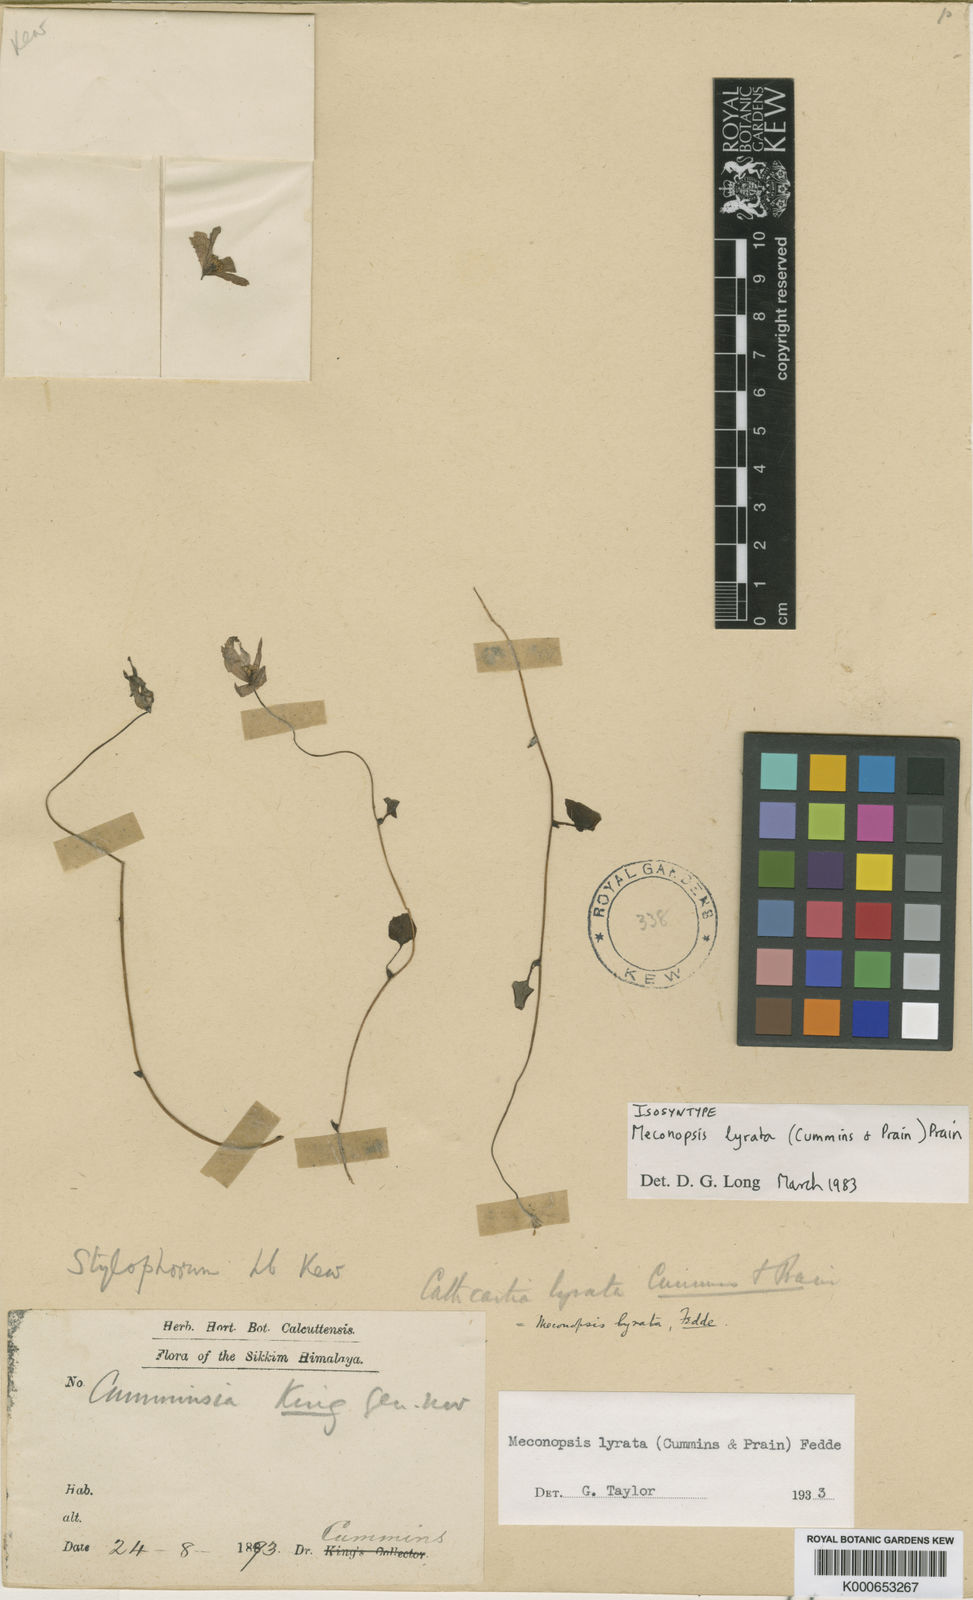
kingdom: Plantae
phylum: Tracheophyta
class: Magnoliopsida
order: Ranunculales
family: Papaveraceae
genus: Meconopsis
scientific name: Meconopsis lyrata
